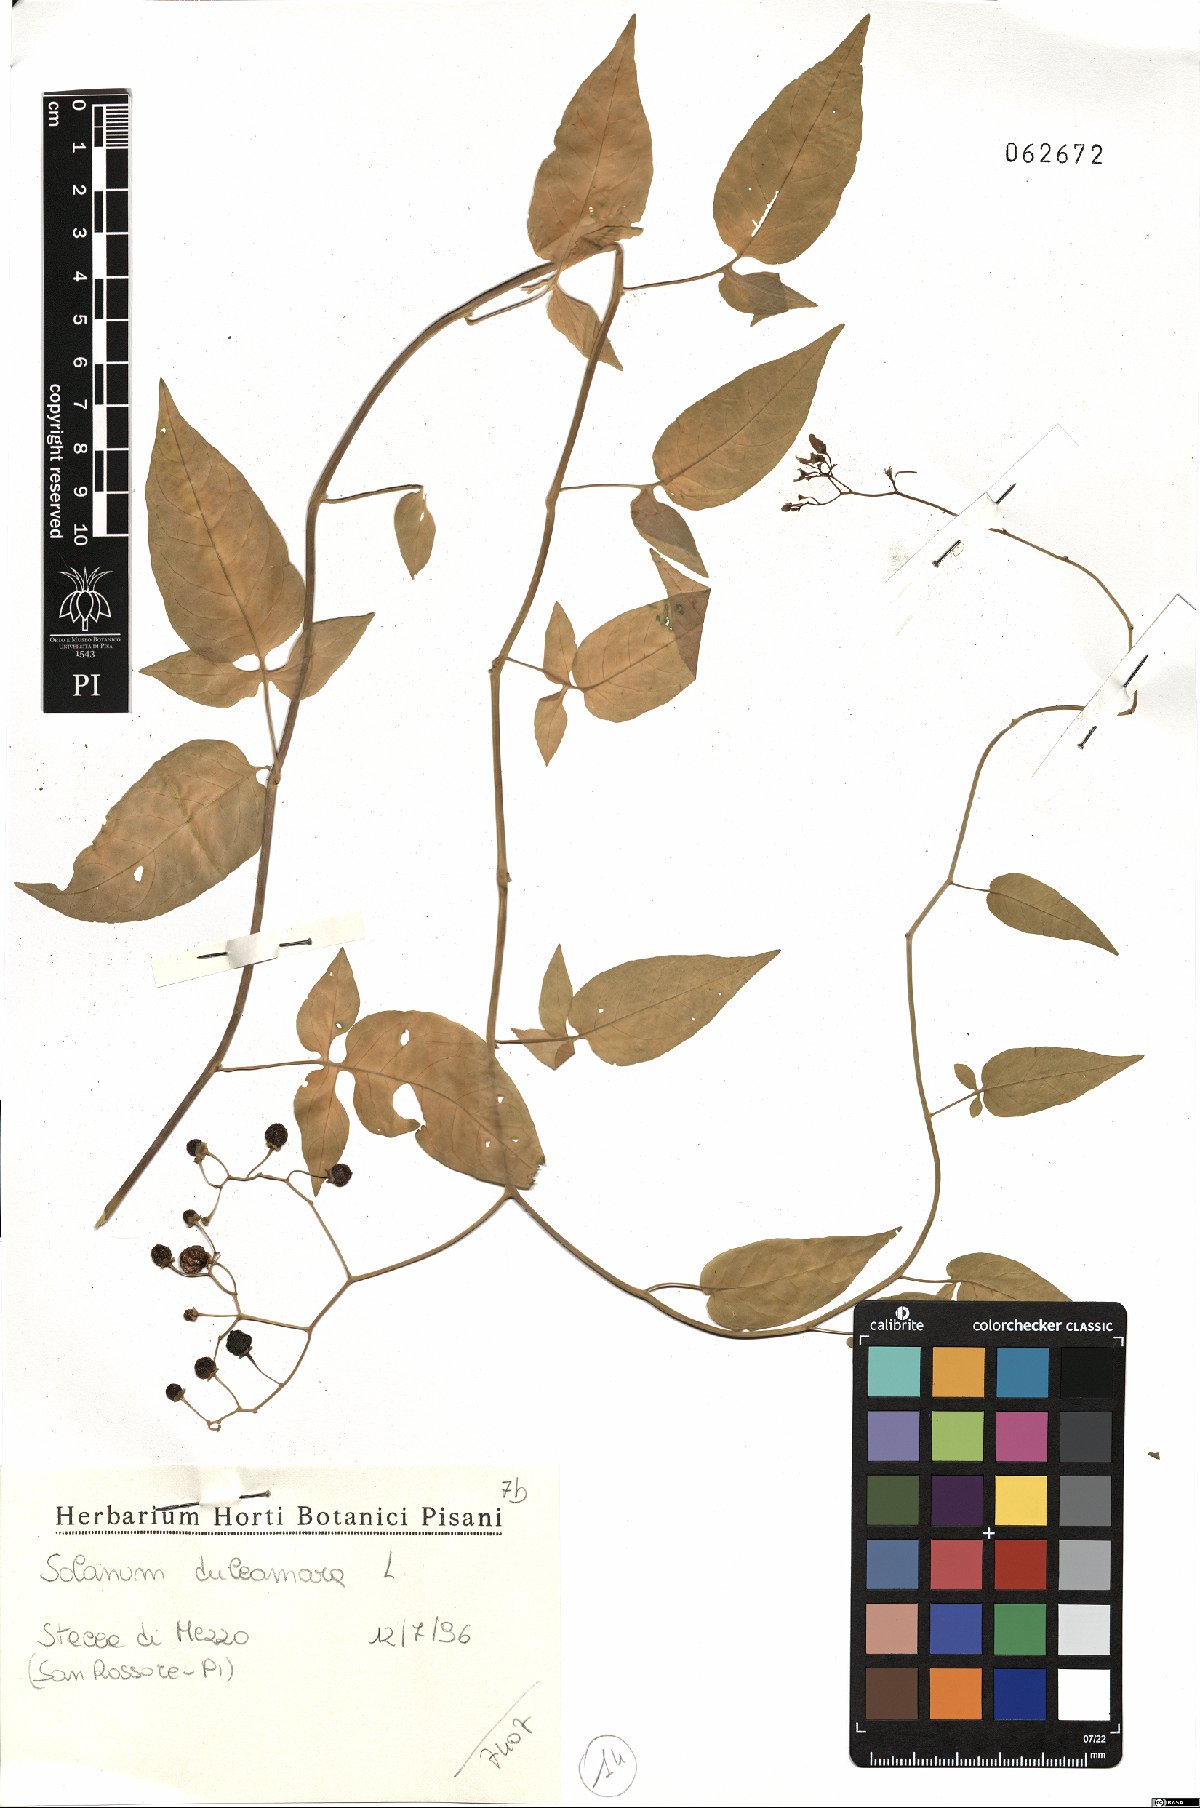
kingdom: Plantae
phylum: Tracheophyta
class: Magnoliopsida
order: Solanales
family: Solanaceae
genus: Solanum
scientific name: Solanum dulcamara
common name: Climbing nightshade
